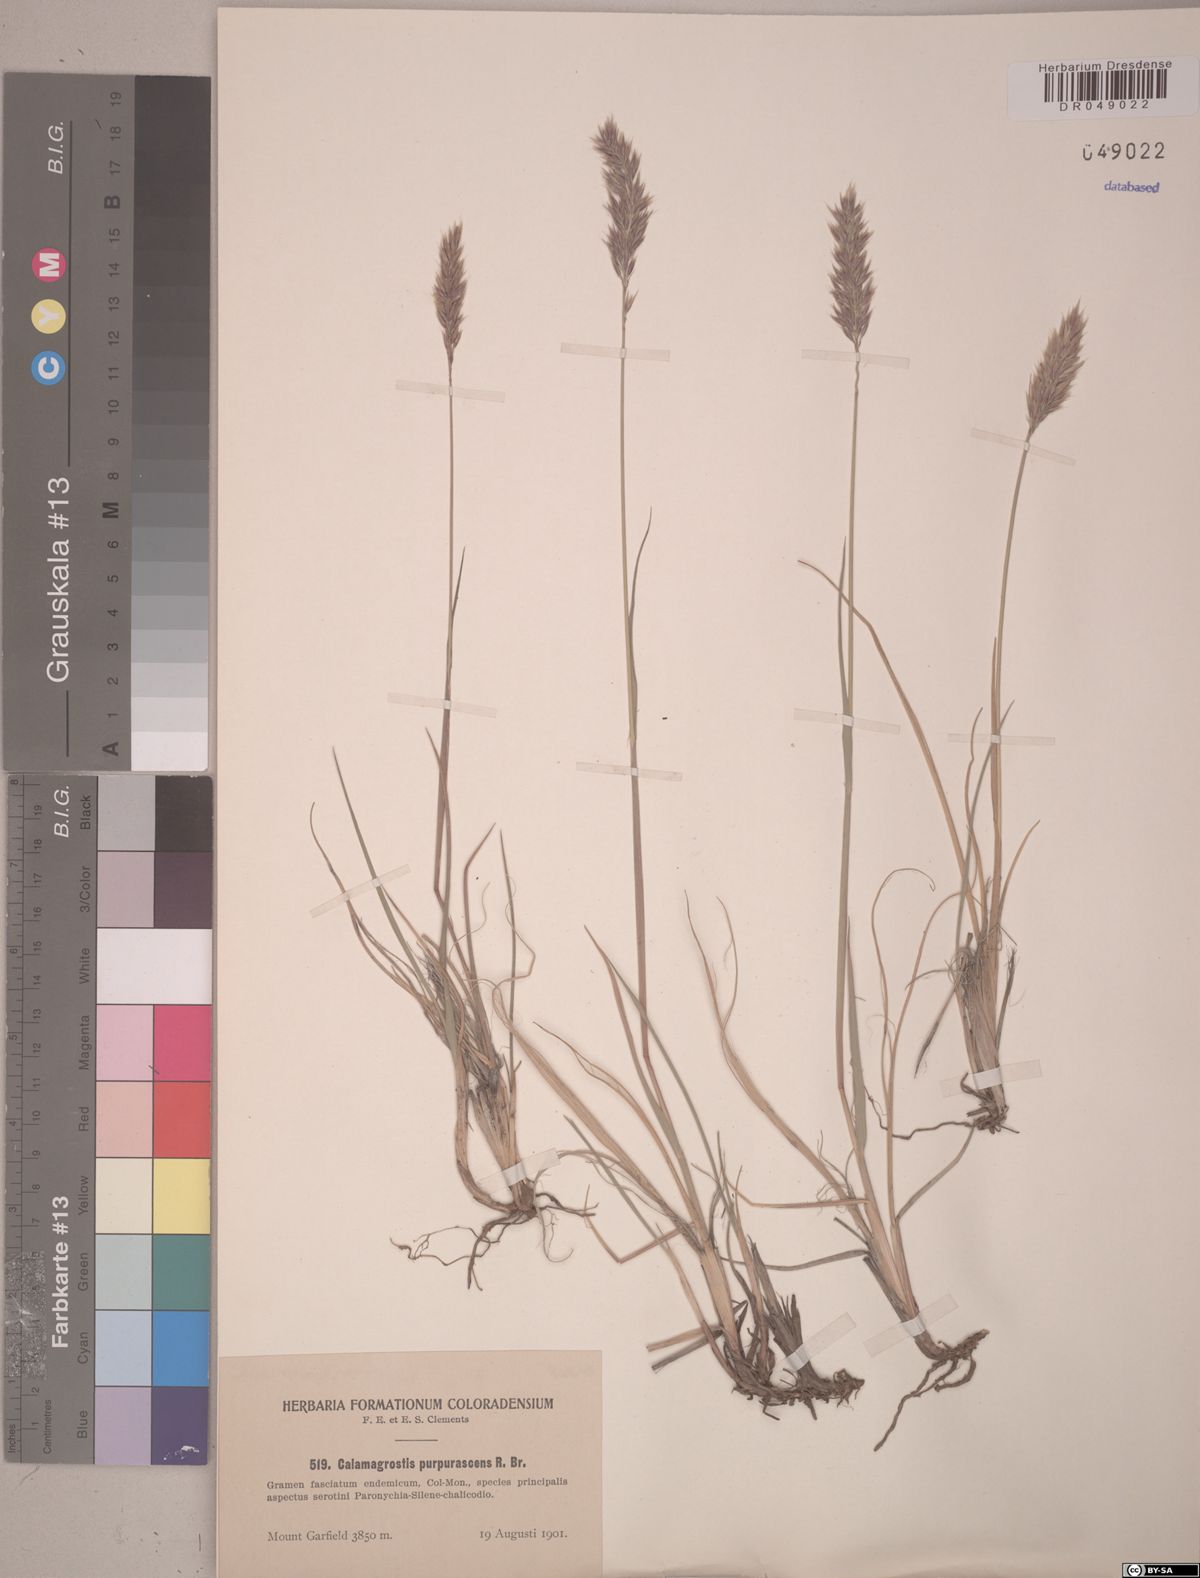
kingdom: Plantae
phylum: Tracheophyta
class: Liliopsida
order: Poales
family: Poaceae
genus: Calamagrostis
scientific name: Calamagrostis purpurascens
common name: Purple reedgrass
